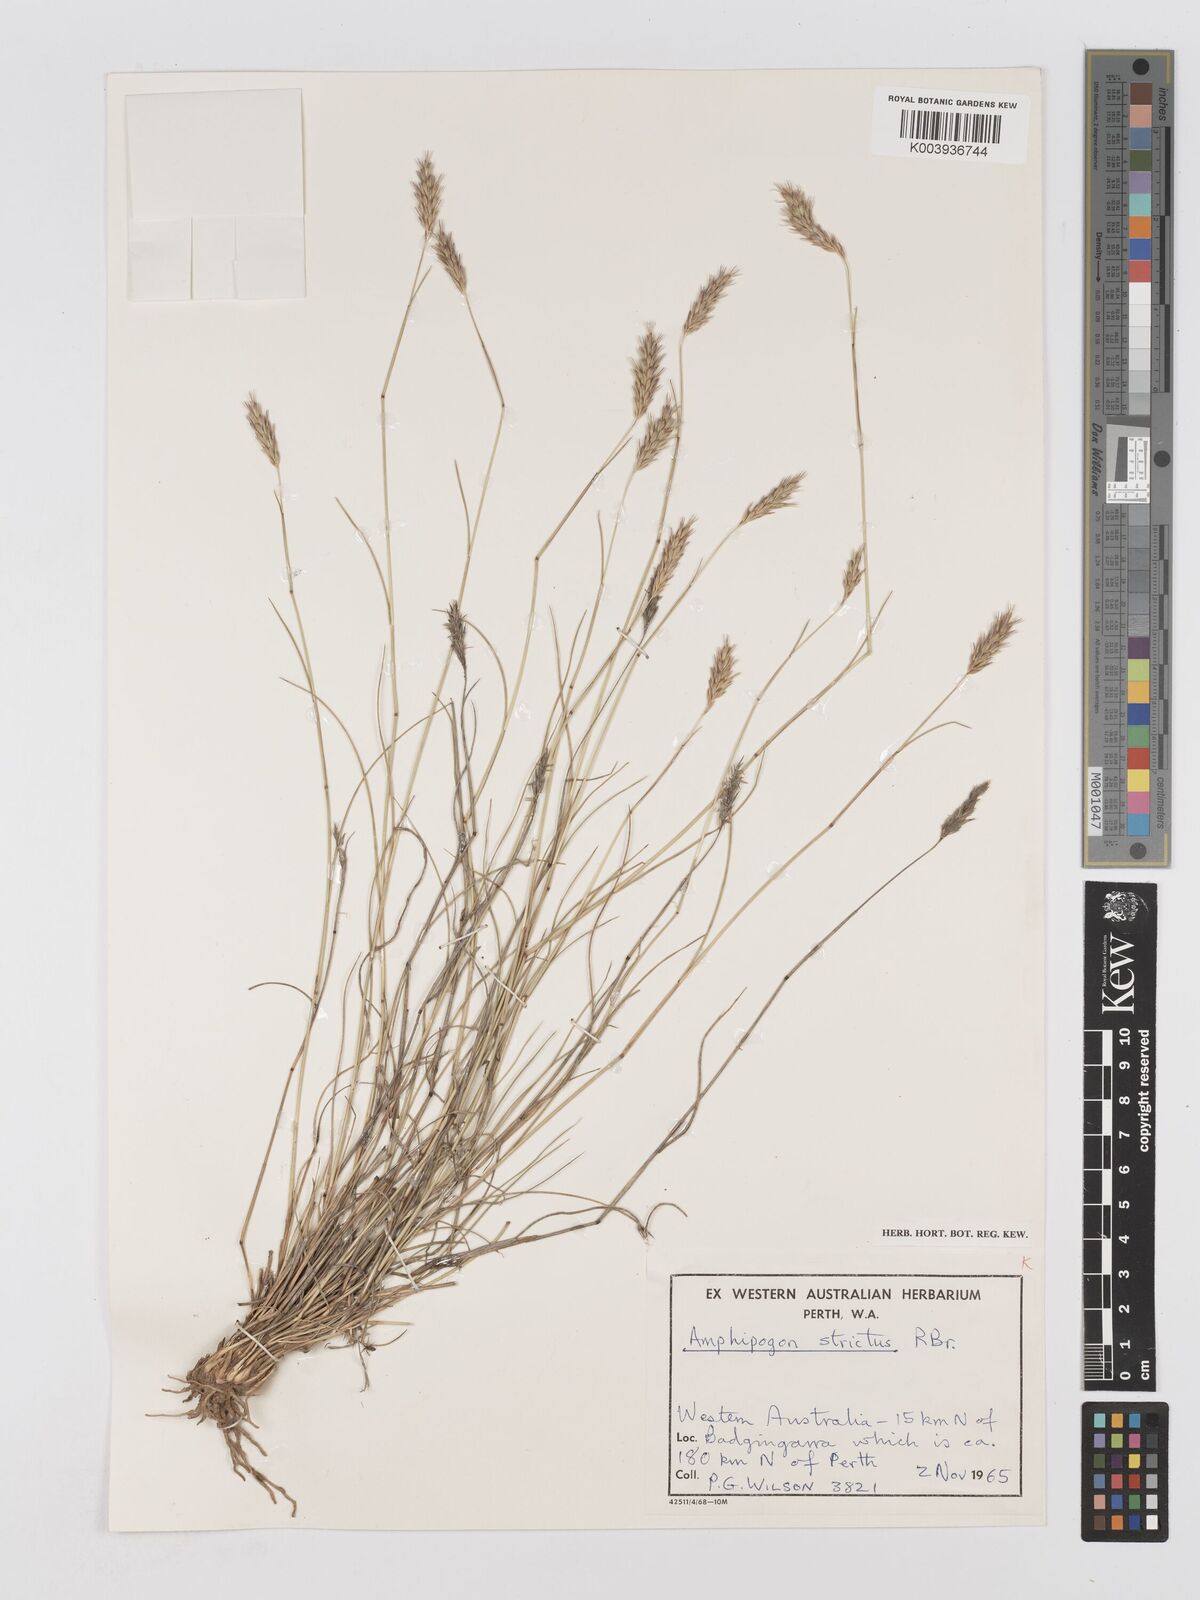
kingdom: Plantae
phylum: Tracheophyta
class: Liliopsida
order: Poales
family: Poaceae
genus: Amphipogon
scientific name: Amphipogon strictus
